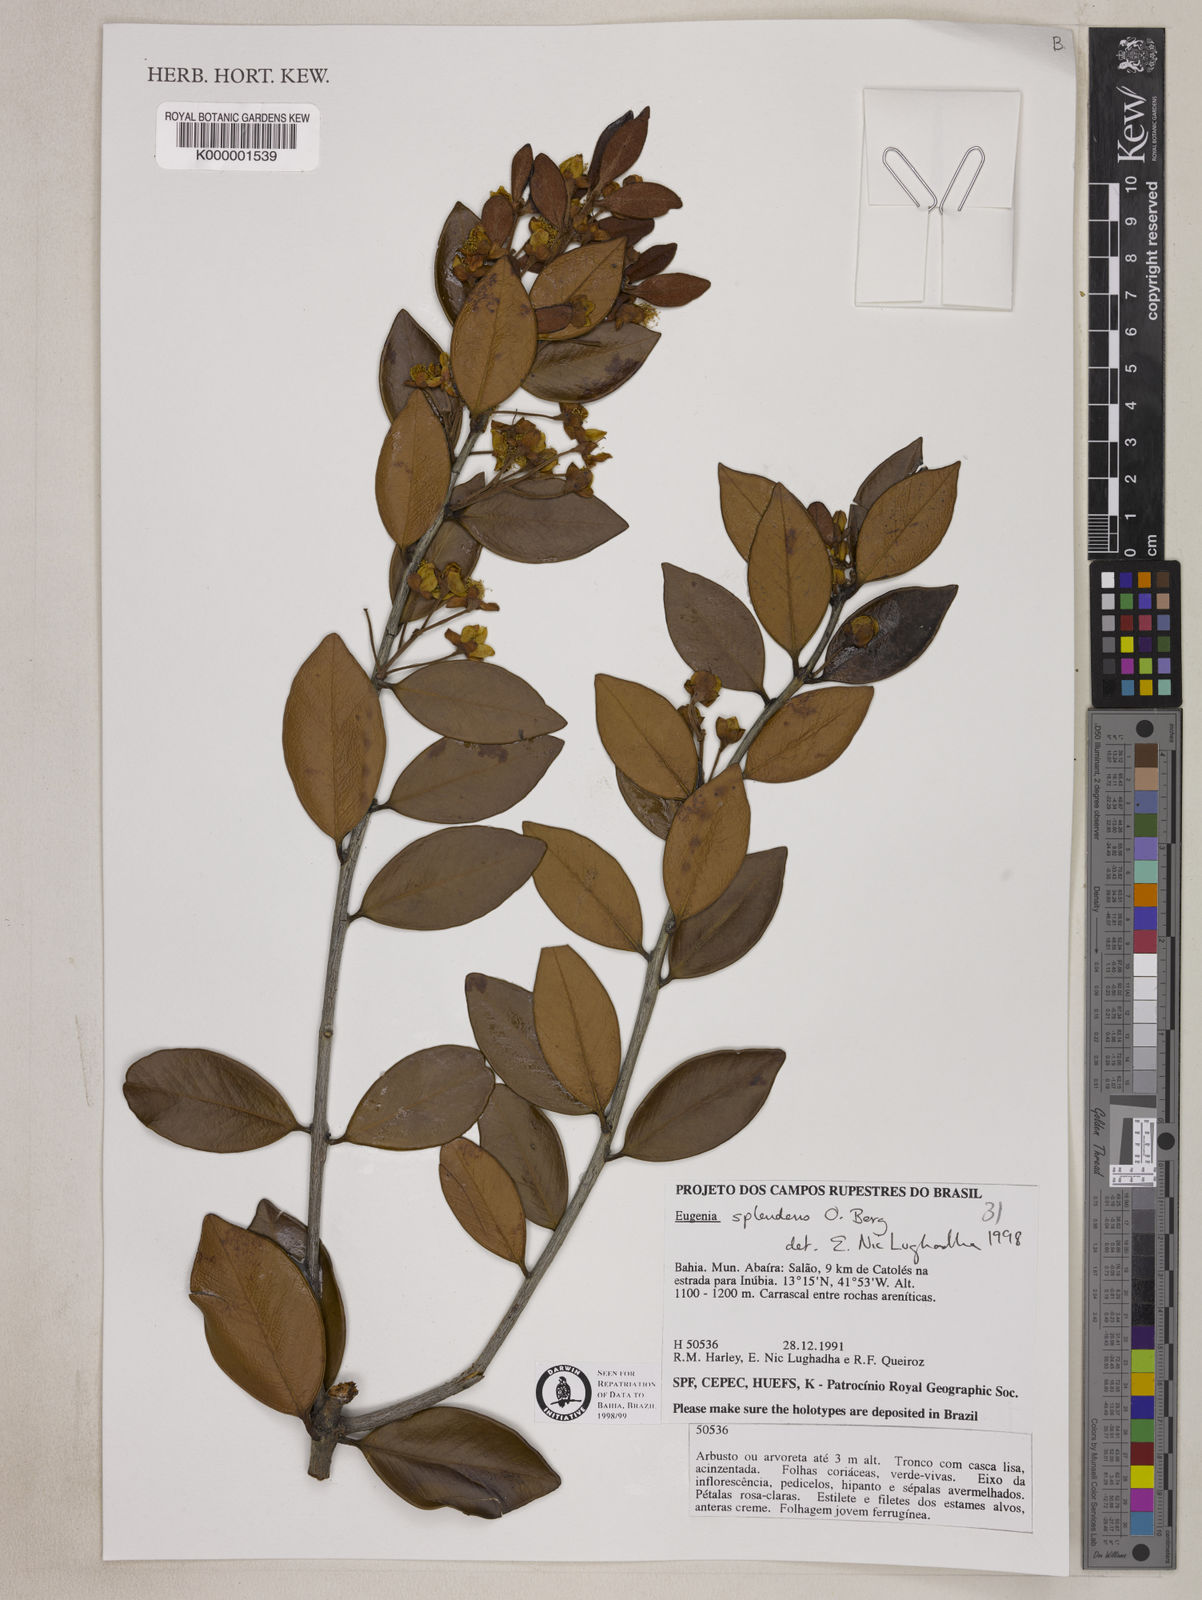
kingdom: Plantae
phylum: Tracheophyta
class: Magnoliopsida
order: Myrtales
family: Myrtaceae
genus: Eugenia
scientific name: Eugenia splendens
